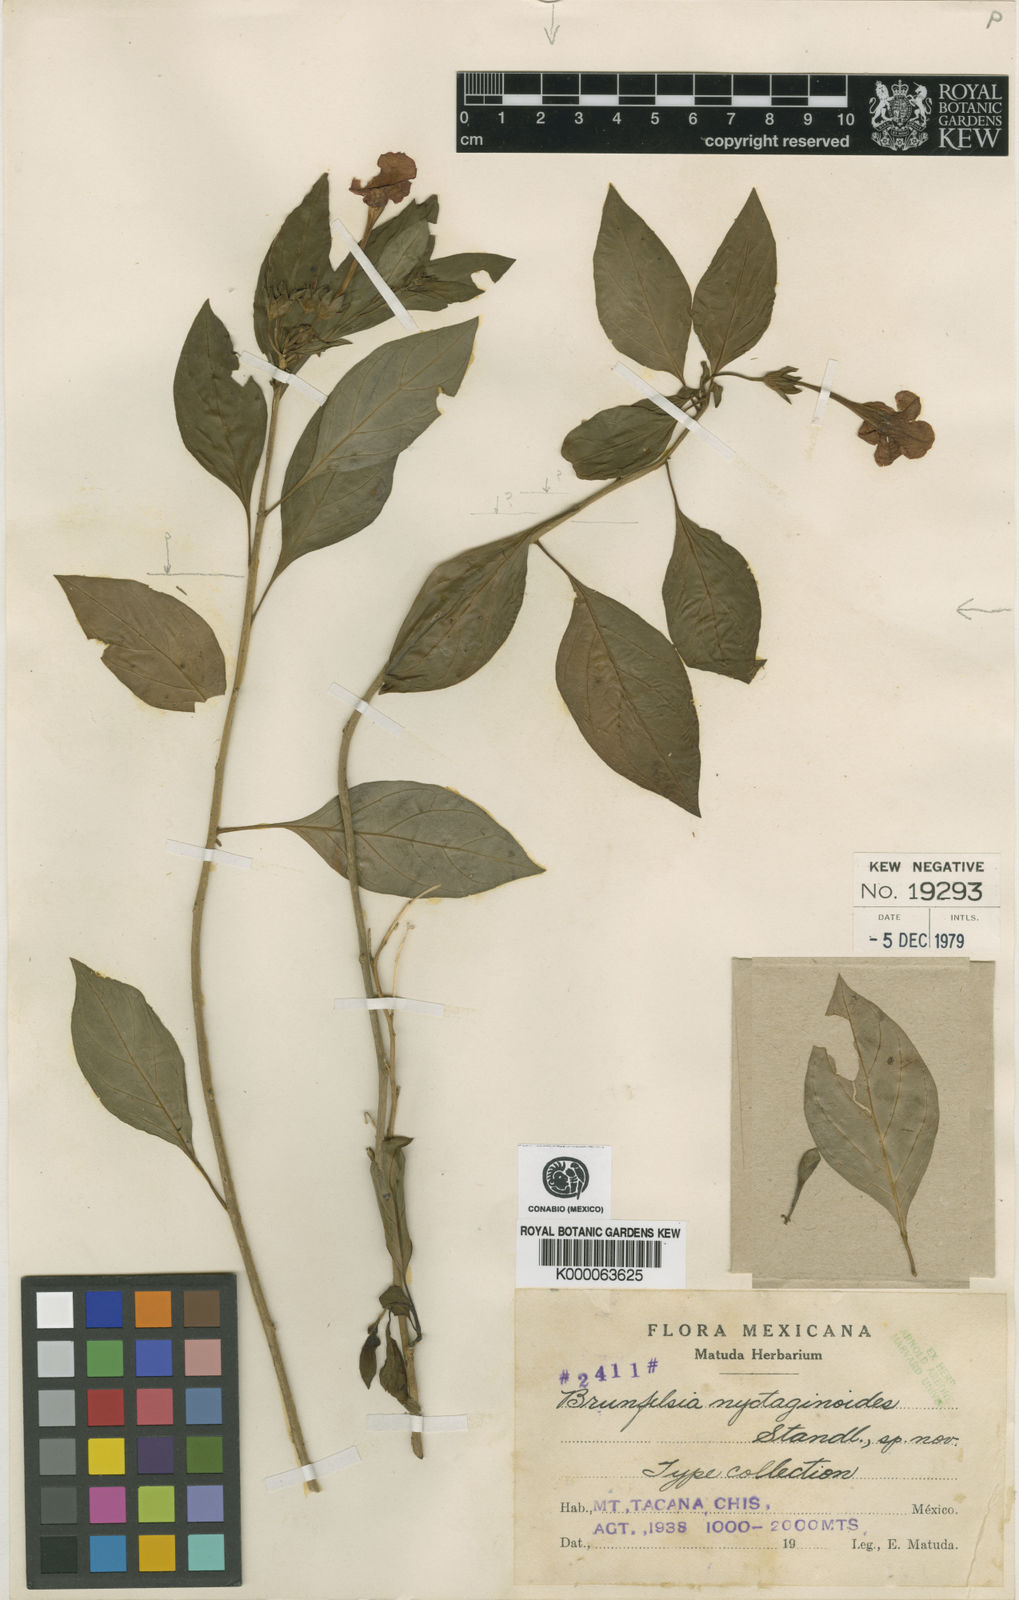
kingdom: Plantae
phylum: Tracheophyta
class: Magnoliopsida
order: Solanales
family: Solanaceae
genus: Plowmania
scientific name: Plowmania nyctaginoides
